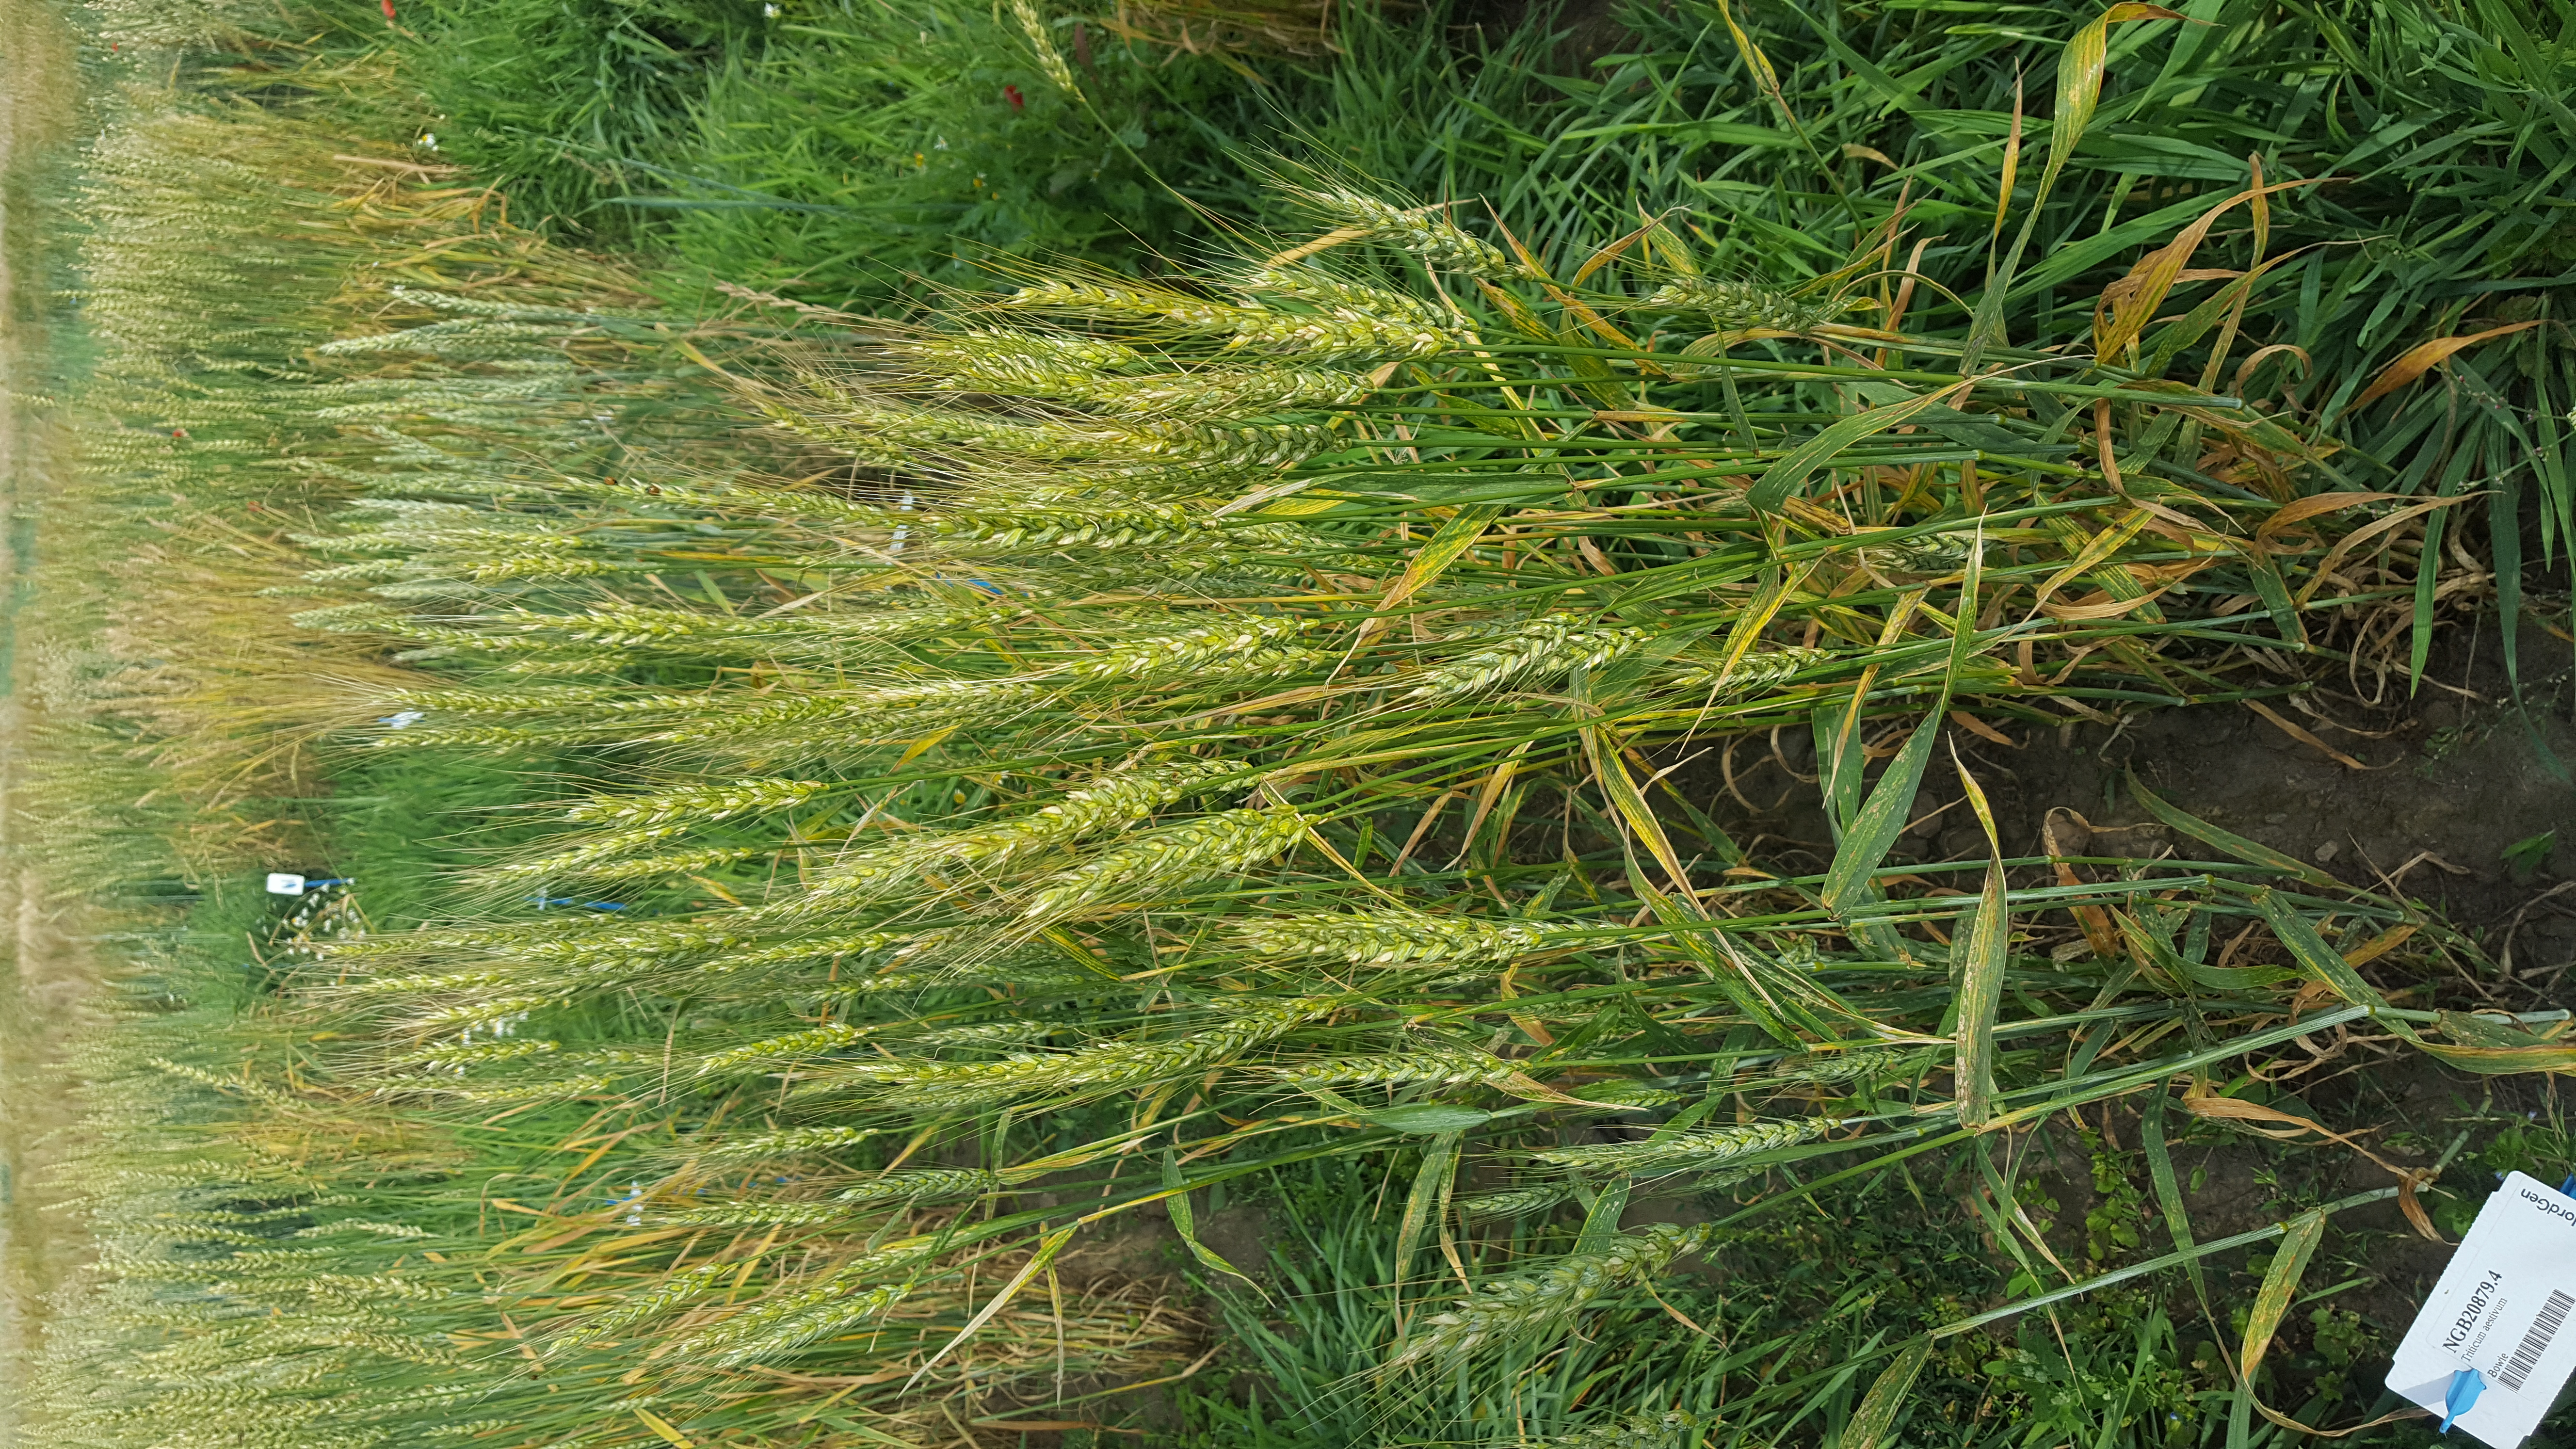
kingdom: Plantae
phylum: Tracheophyta
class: Liliopsida
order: Poales
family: Poaceae
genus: Triticum
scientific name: Triticum aestivum
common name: Common wheat
